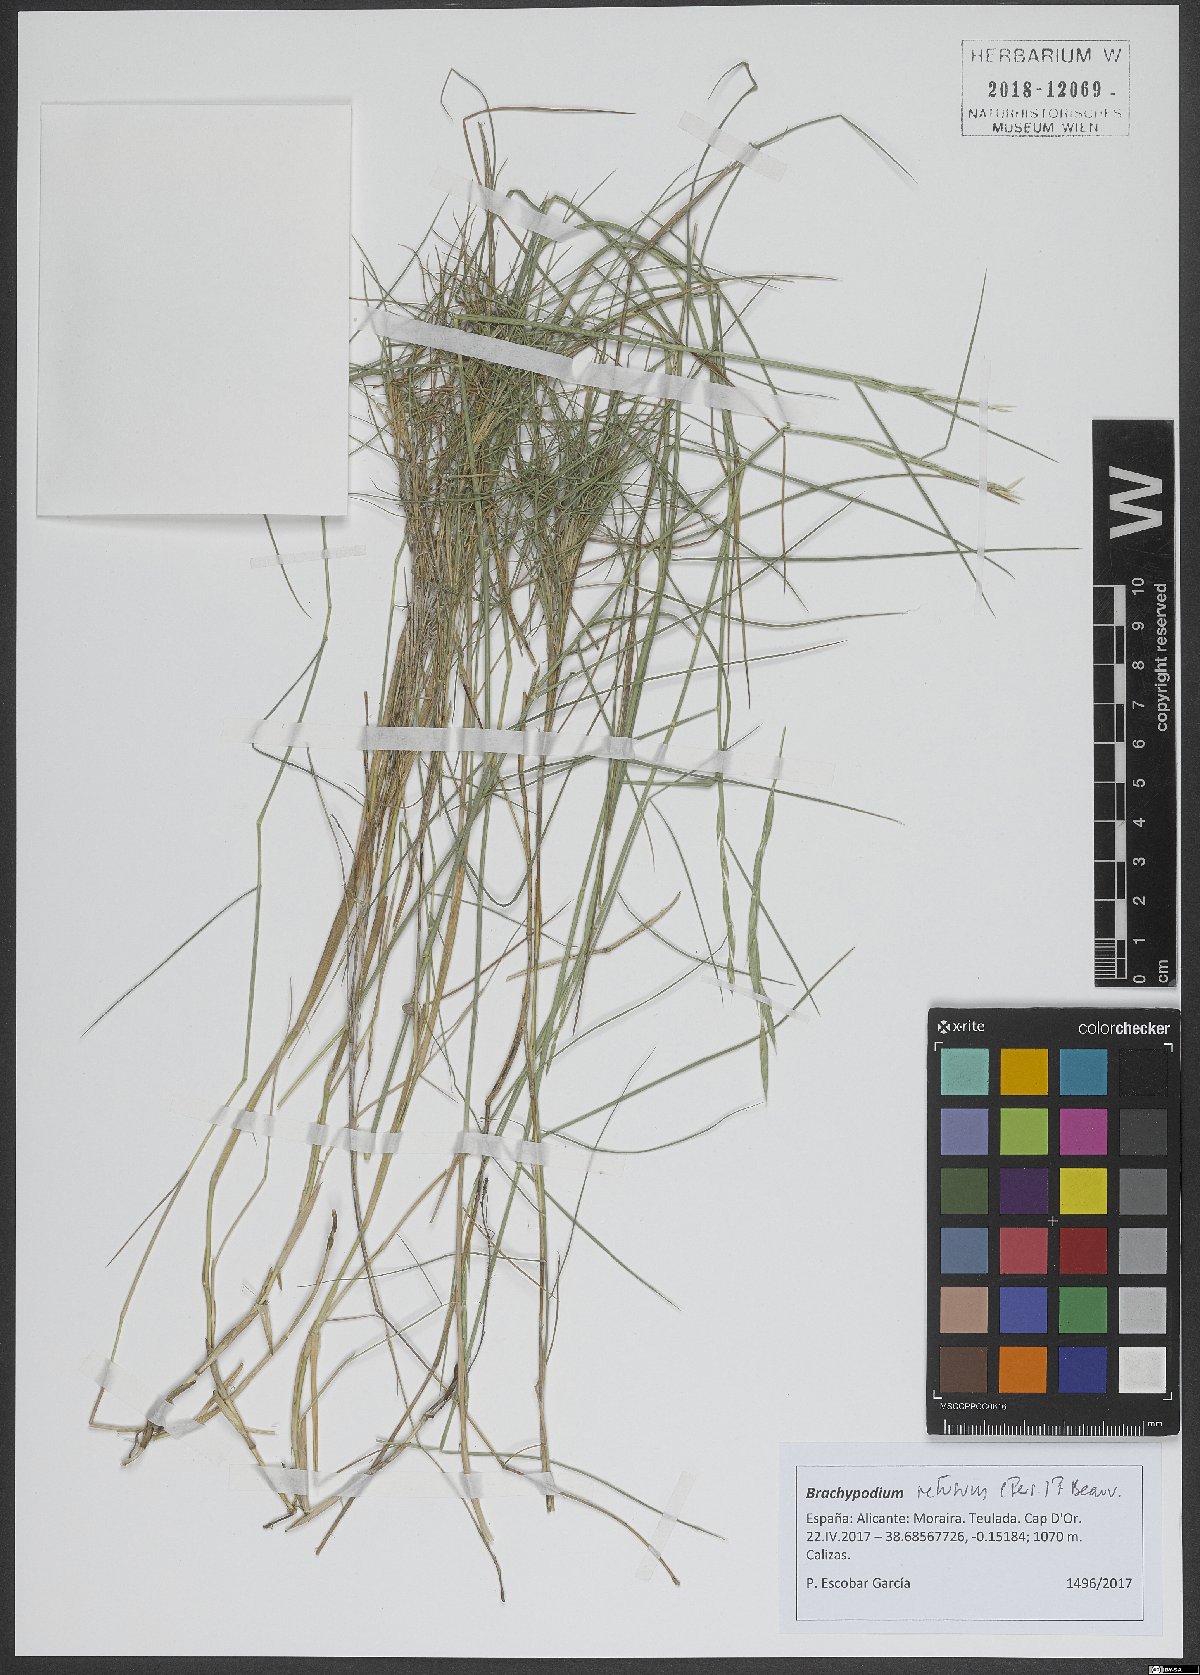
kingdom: Plantae
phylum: Tracheophyta
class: Liliopsida
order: Poales
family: Poaceae
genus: Brachypodium
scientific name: Brachypodium retusum
